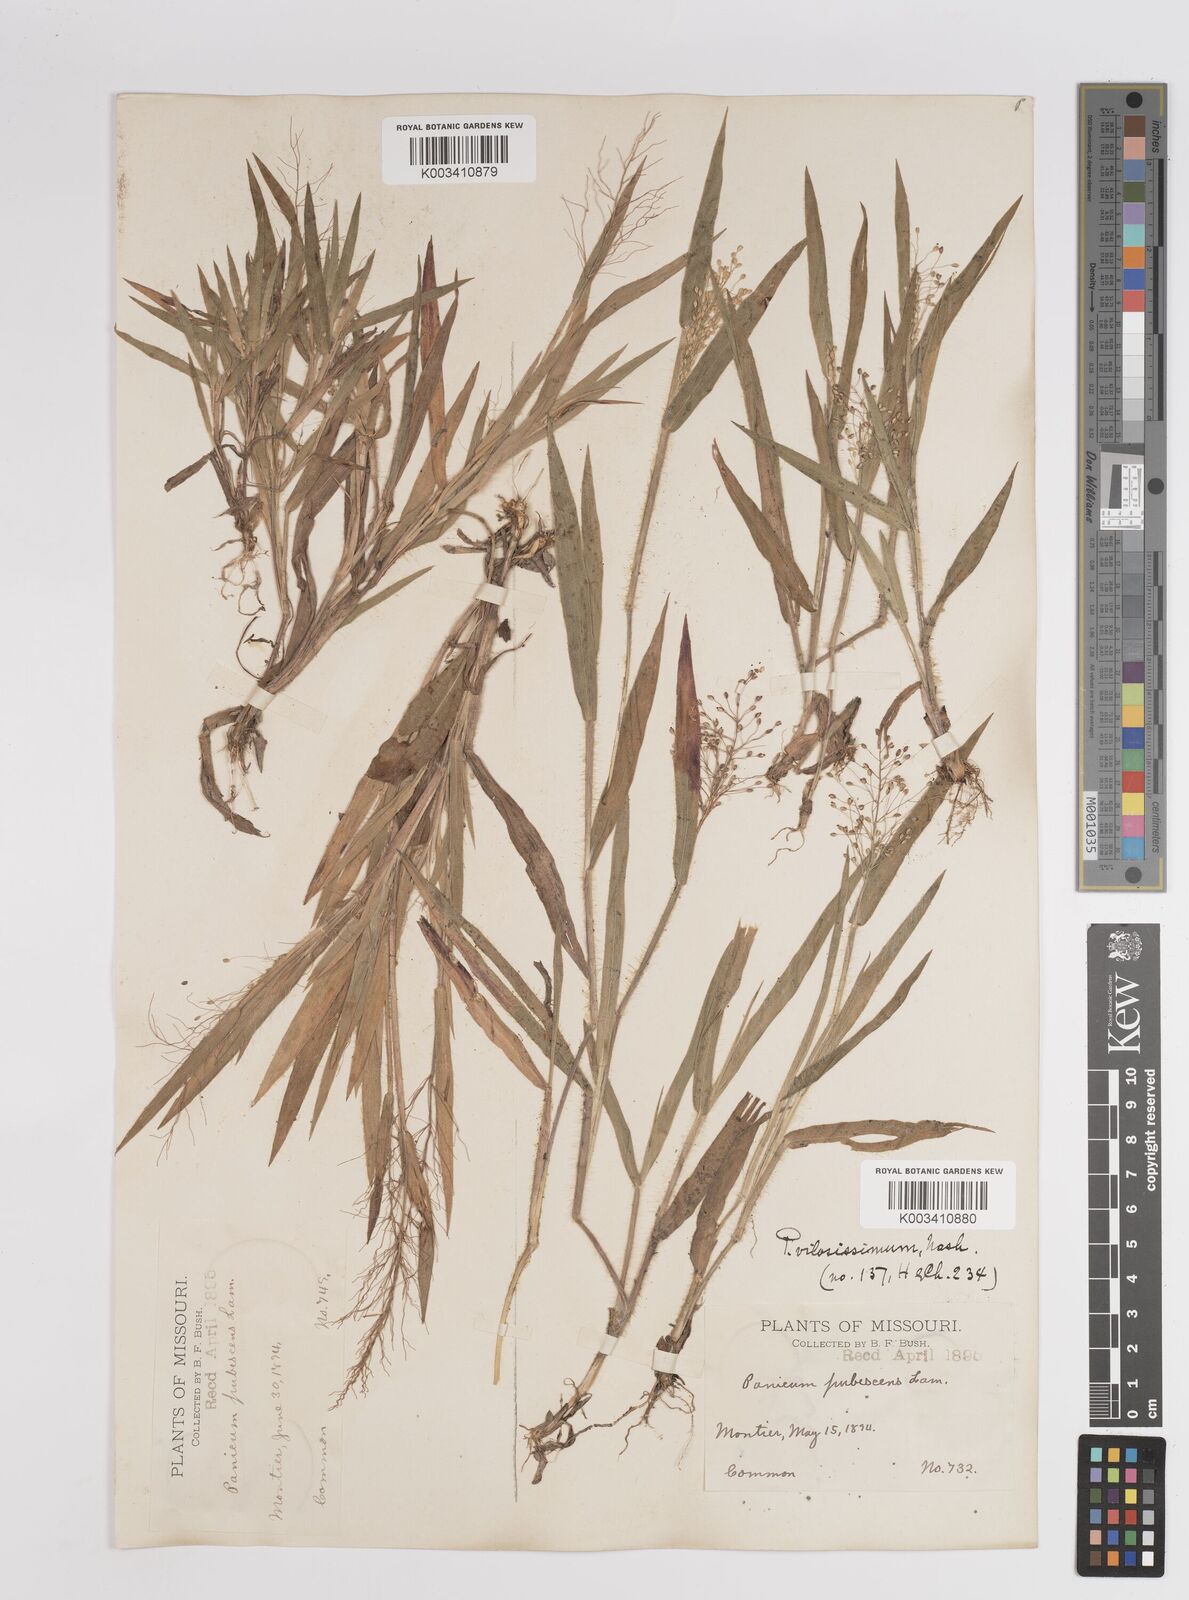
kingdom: Plantae
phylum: Tracheophyta
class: Liliopsida
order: Poales
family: Poaceae
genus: Dichanthelium
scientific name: Dichanthelium villosissimum
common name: White-haired panicgrass
